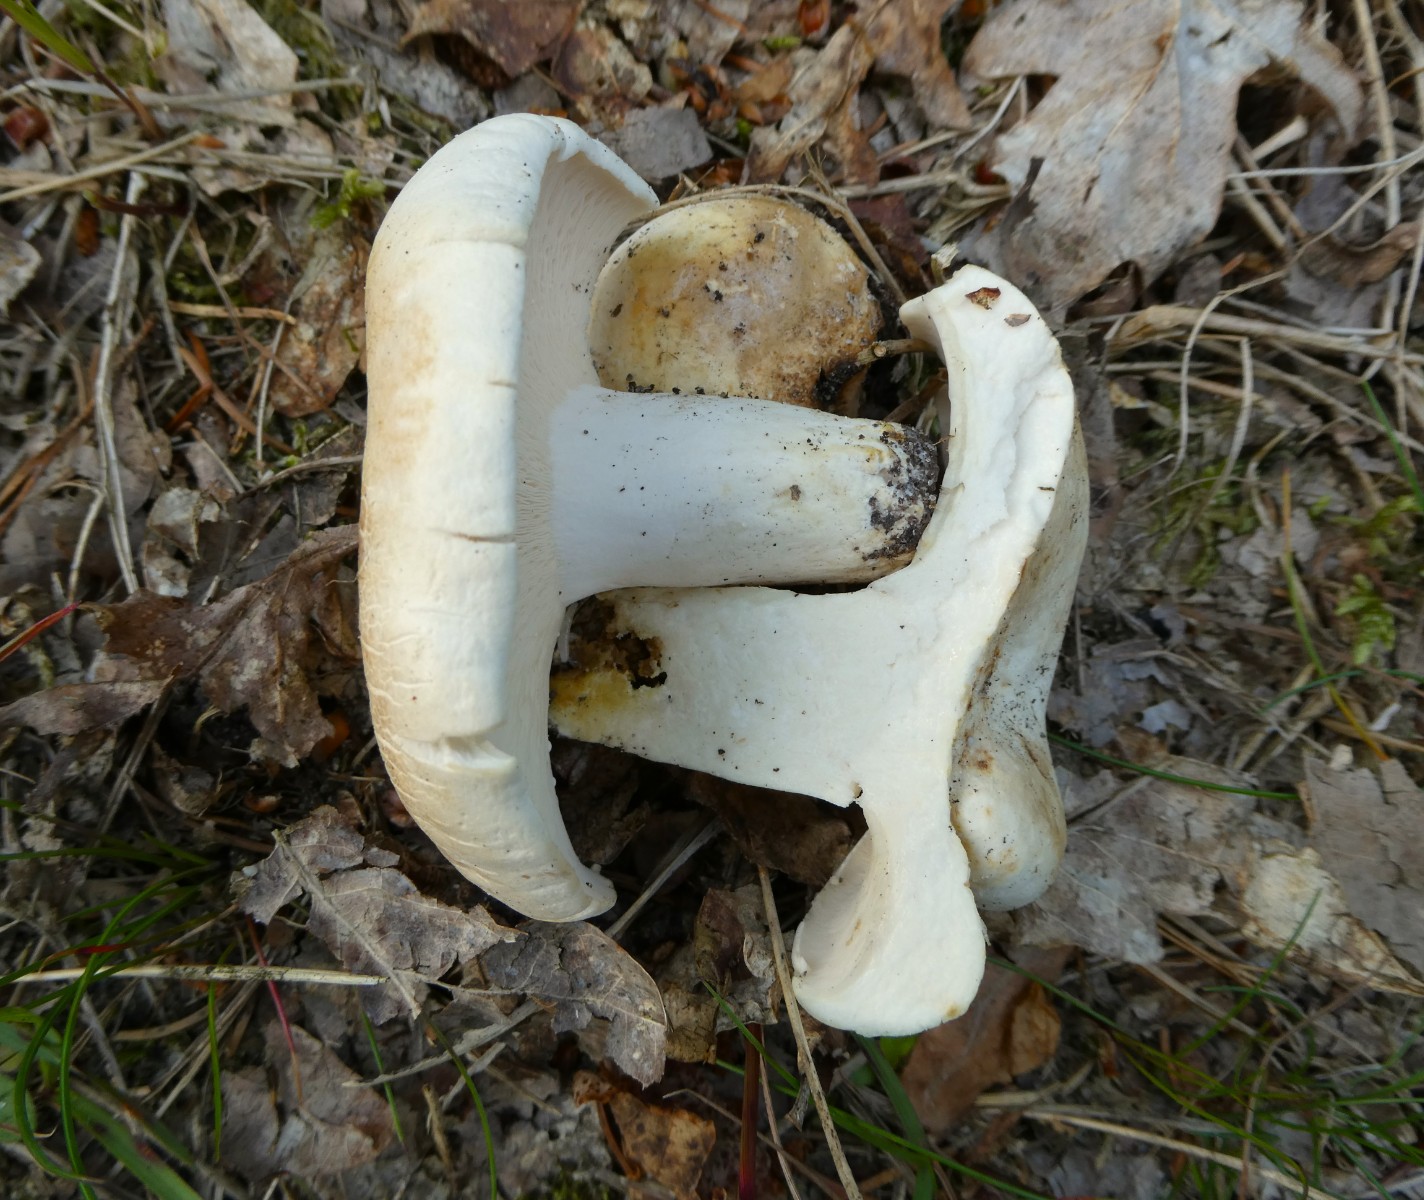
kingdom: Fungi
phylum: Basidiomycota
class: Agaricomycetes
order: Russulales
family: Russulaceae
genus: Lactifluus
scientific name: Lactifluus piperatus
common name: peber-mælkehat
